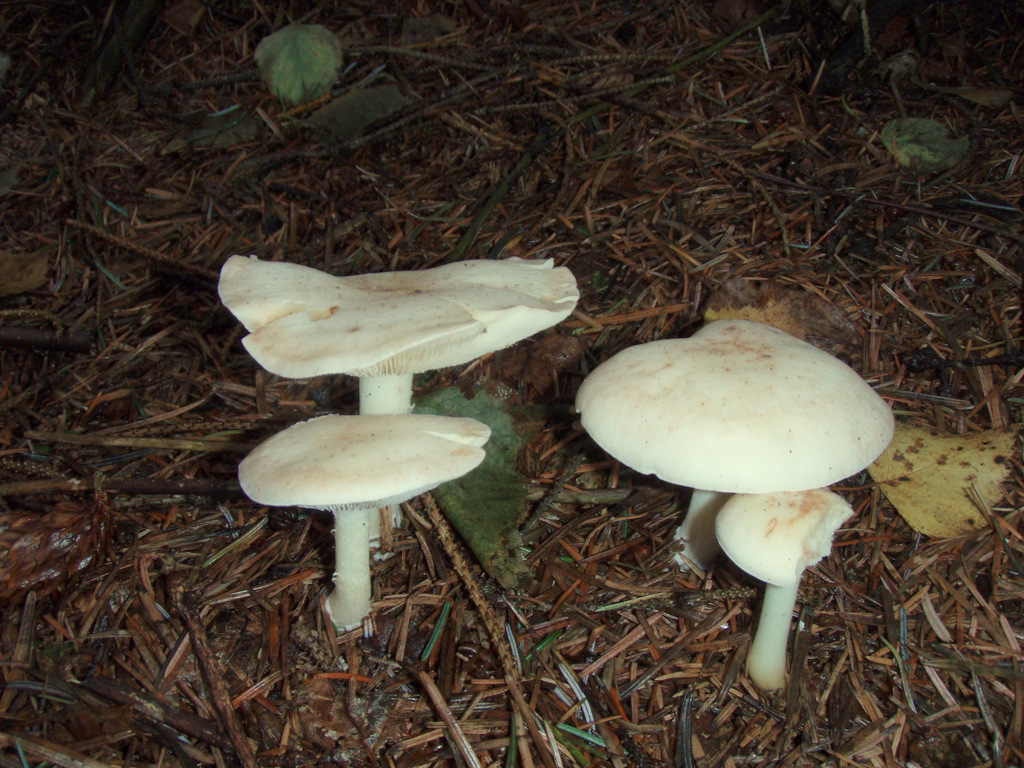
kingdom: Fungi
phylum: Basidiomycota
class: Agaricomycetes
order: Agaricales
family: Omphalotaceae
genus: Rhodocollybia
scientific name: Rhodocollybia maculata
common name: plettet fladhat
